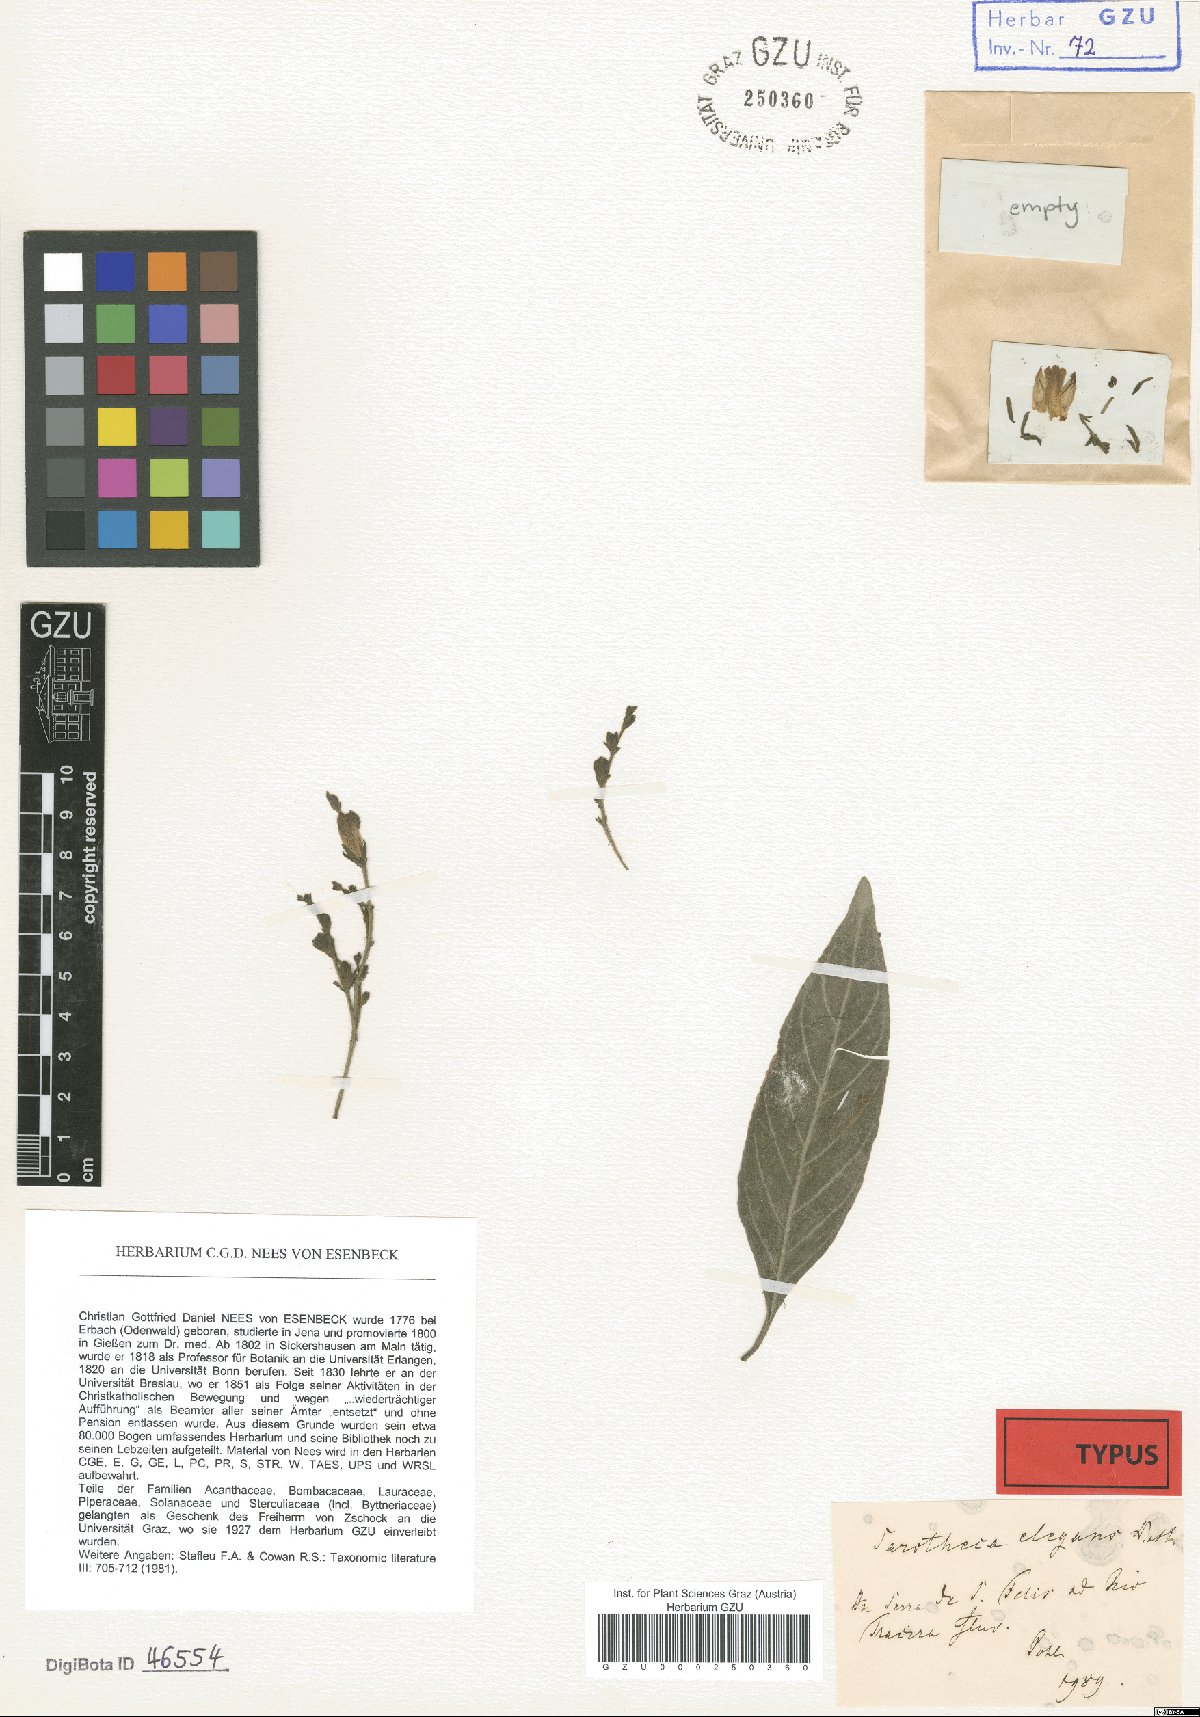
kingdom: Plantae
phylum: Tracheophyta
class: Magnoliopsida
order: Lamiales
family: Acanthaceae
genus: Justicia
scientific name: Justicia glutinosa
